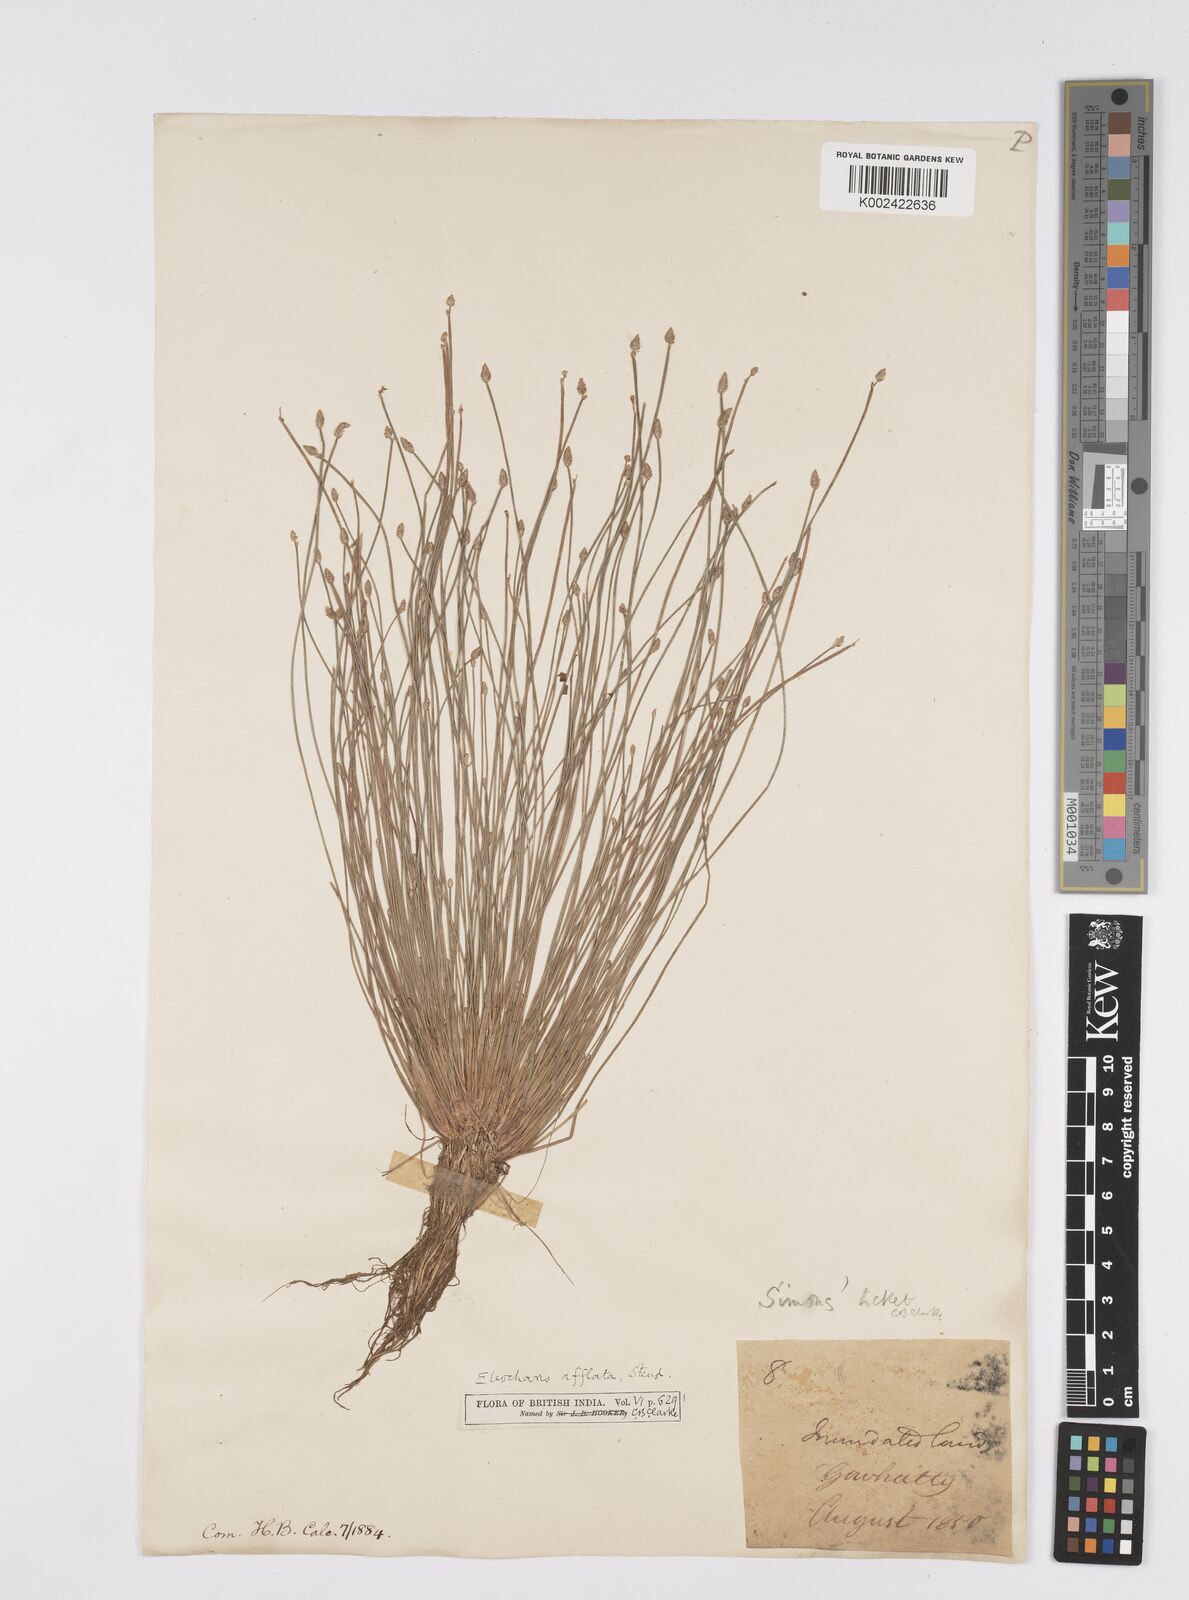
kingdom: Plantae
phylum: Tracheophyta
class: Liliopsida
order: Poales
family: Cyperaceae
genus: Eleocharis
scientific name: Eleocharis pellucida
